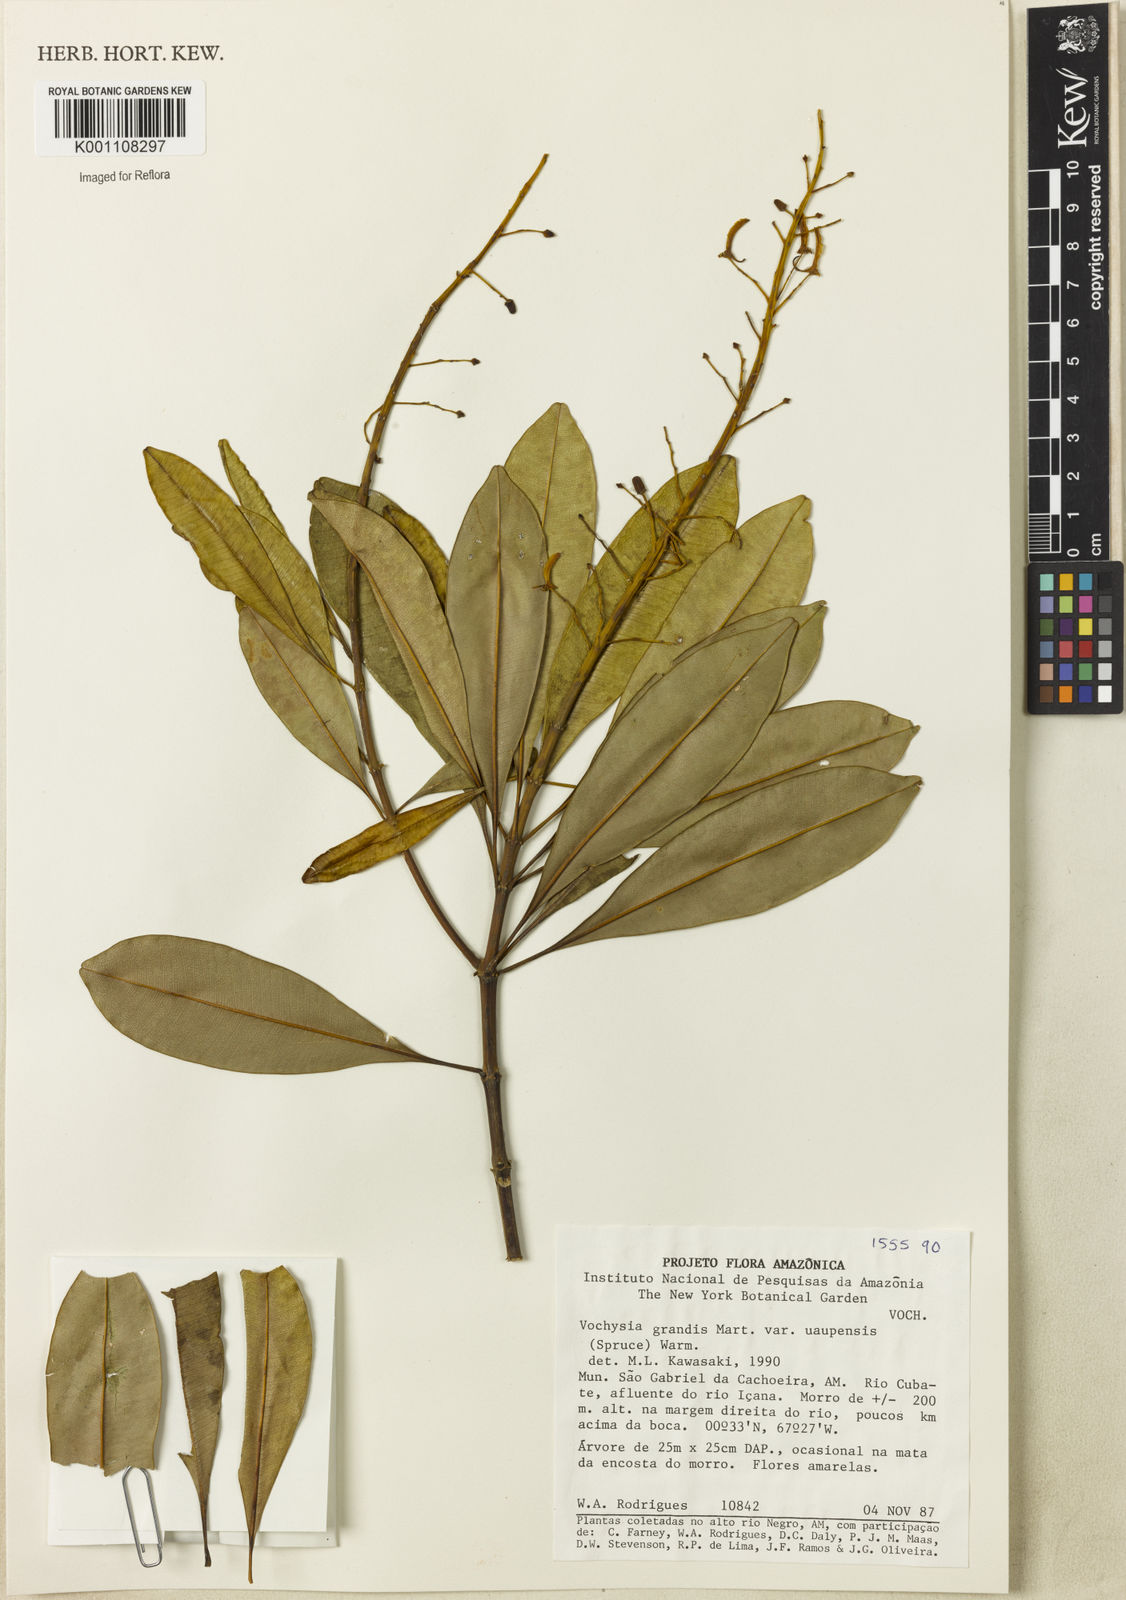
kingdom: Plantae
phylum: Tracheophyta
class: Magnoliopsida
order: Myrtales
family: Vochysiaceae
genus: Vochysia
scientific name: Vochysia grandis
